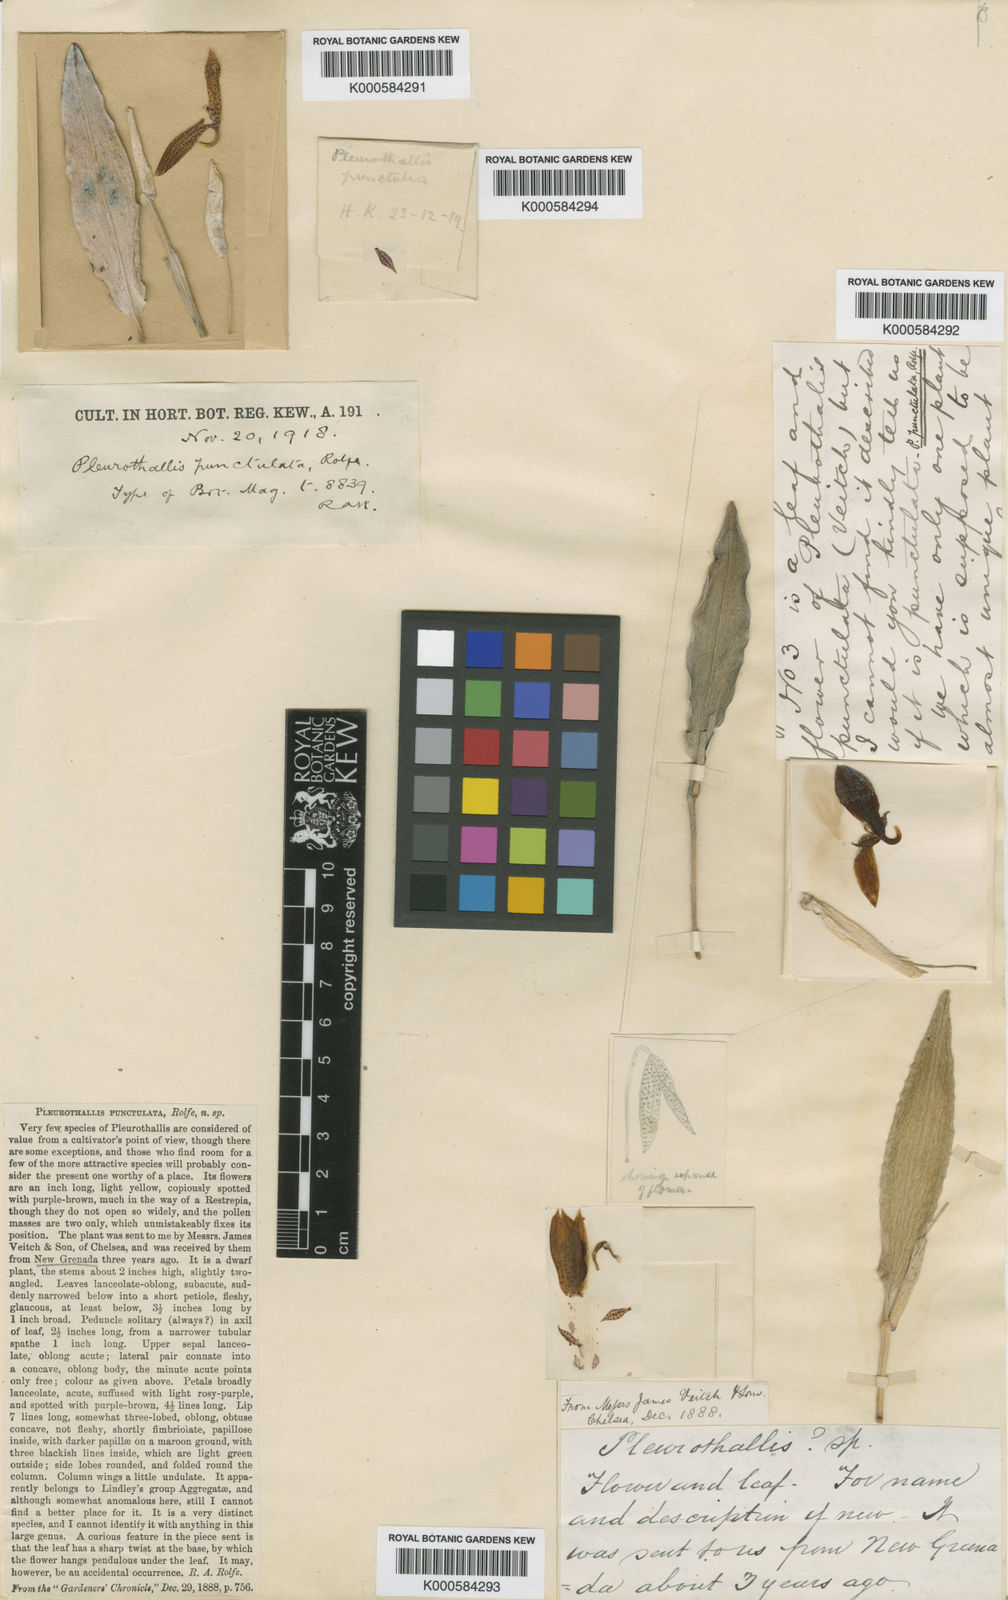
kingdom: Plantae
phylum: Tracheophyta
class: Liliopsida
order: Asparagales
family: Orchidaceae
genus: Pleurothallis
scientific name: Pleurothallis punctulata
